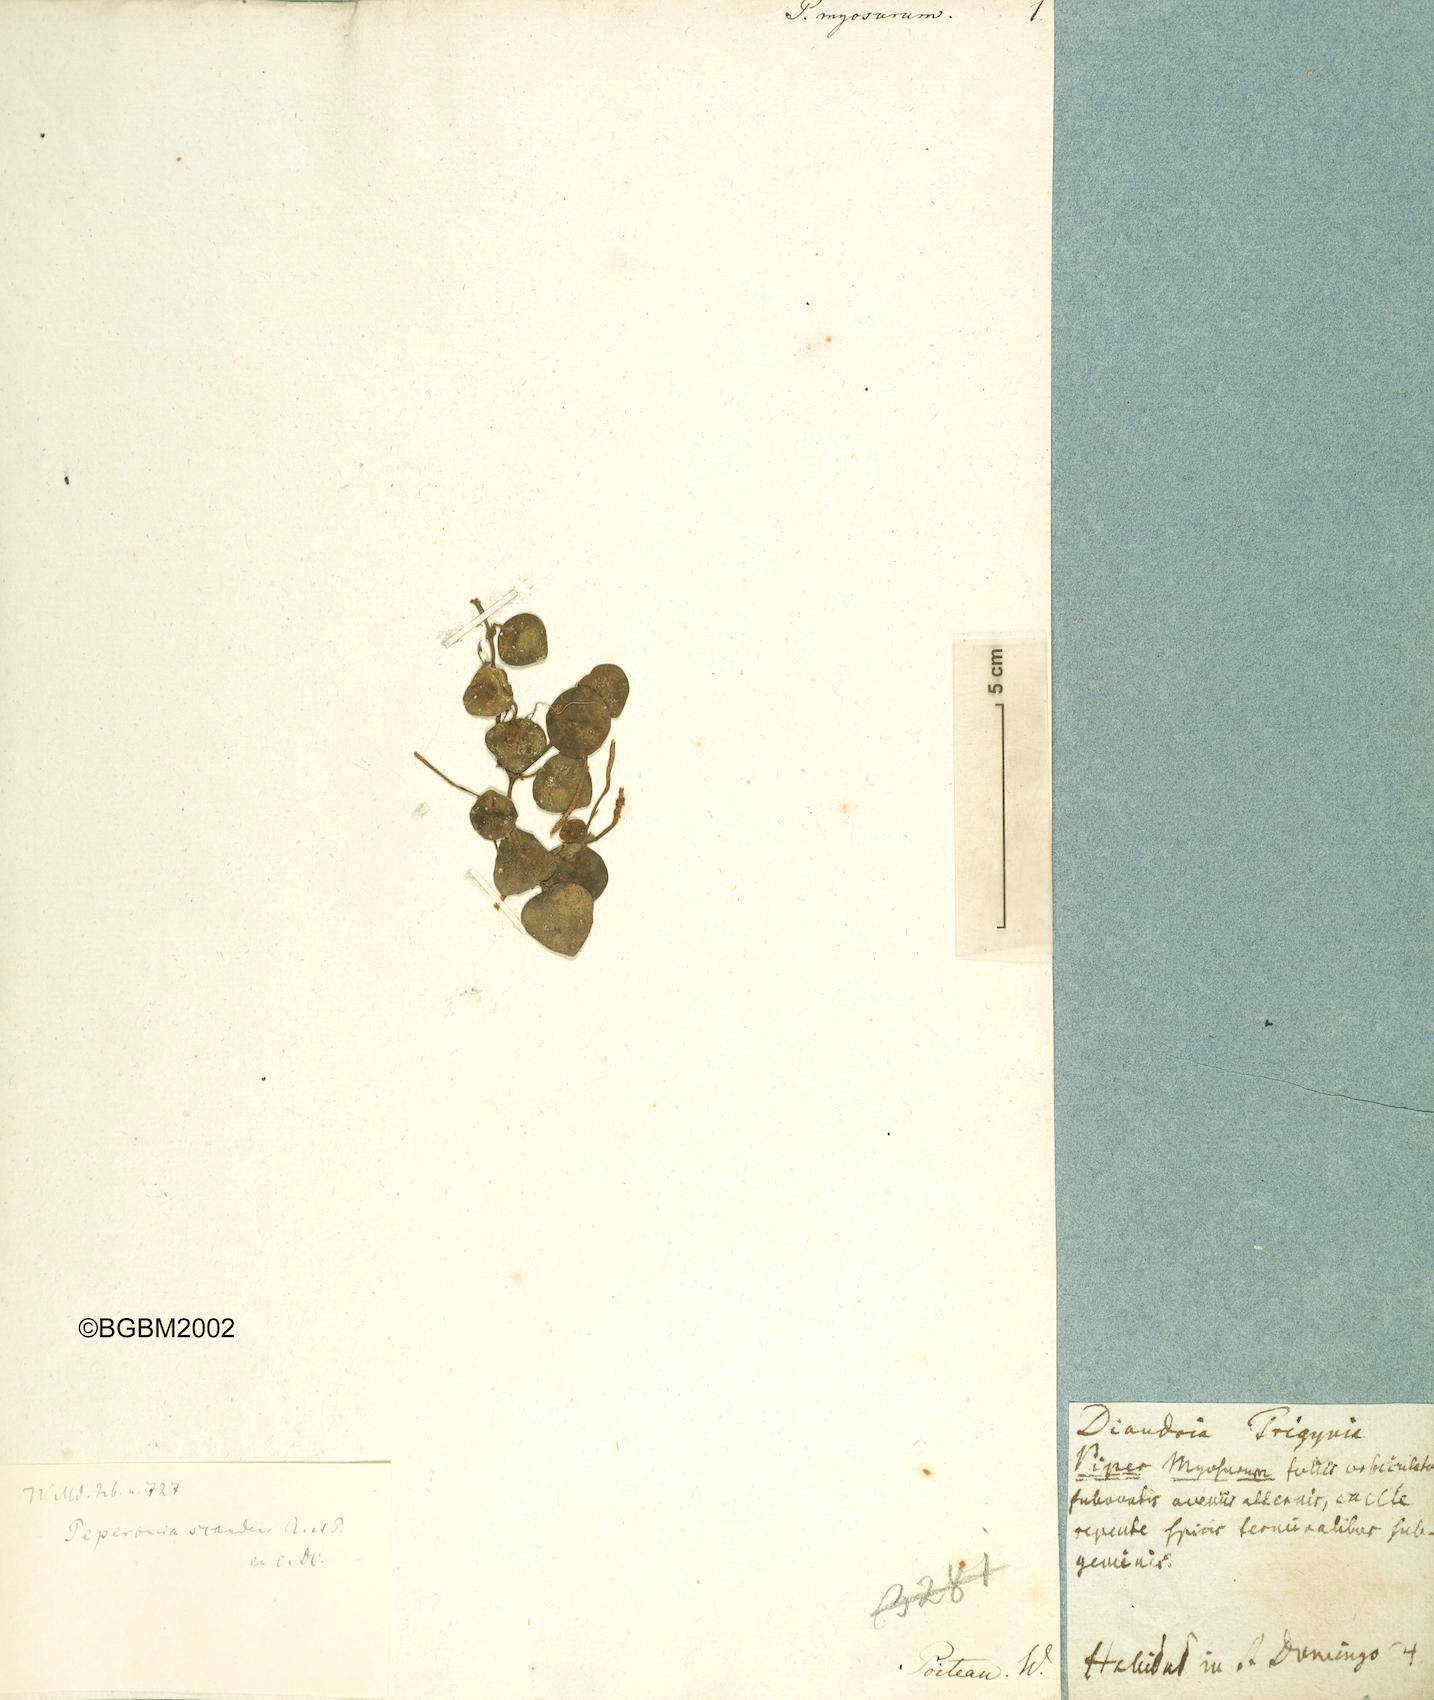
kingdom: Plantae
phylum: Tracheophyta
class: Magnoliopsida
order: Piperales
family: Piperaceae
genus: Peperomia
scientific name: Peperomia serpens
